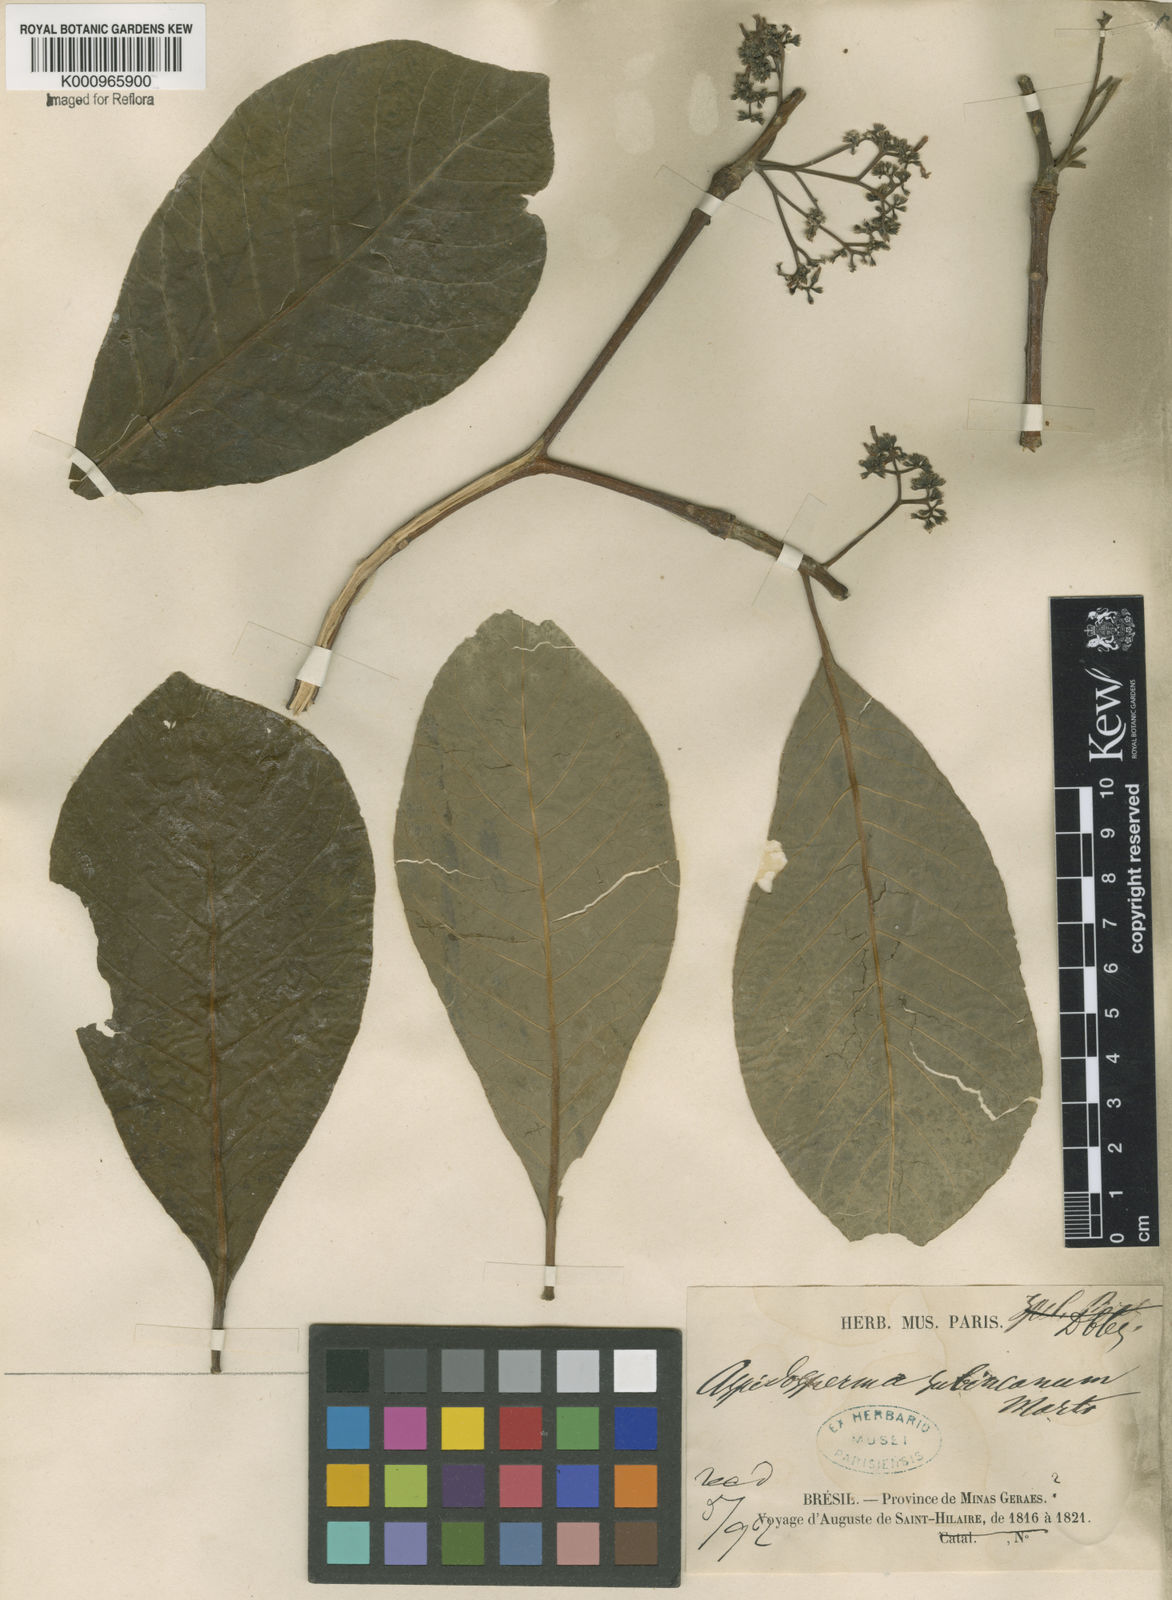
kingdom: Plantae
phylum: Tracheophyta
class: Magnoliopsida
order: Gentianales
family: Apocynaceae
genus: Aspidosperma
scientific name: Aspidosperma subincanum
